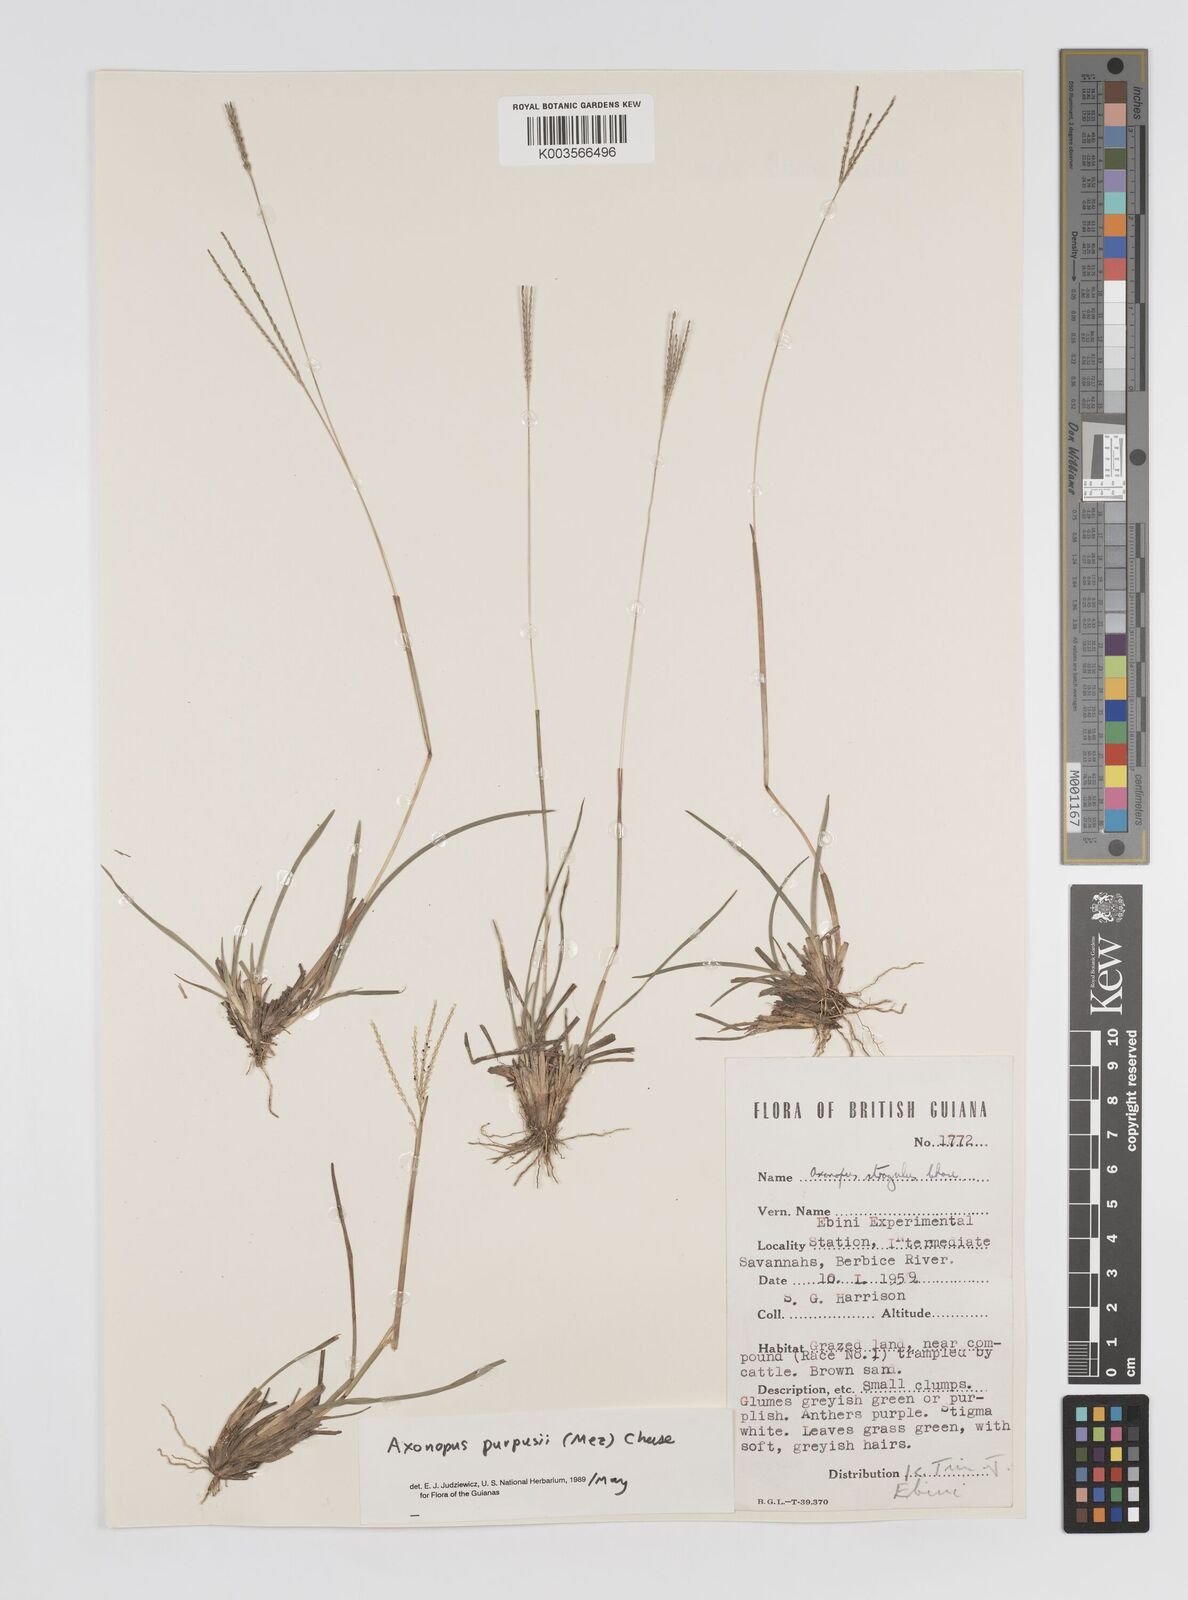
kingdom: Plantae
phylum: Tracheophyta
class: Liliopsida
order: Poales
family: Poaceae
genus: Axonopus
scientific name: Axonopus purpusii
